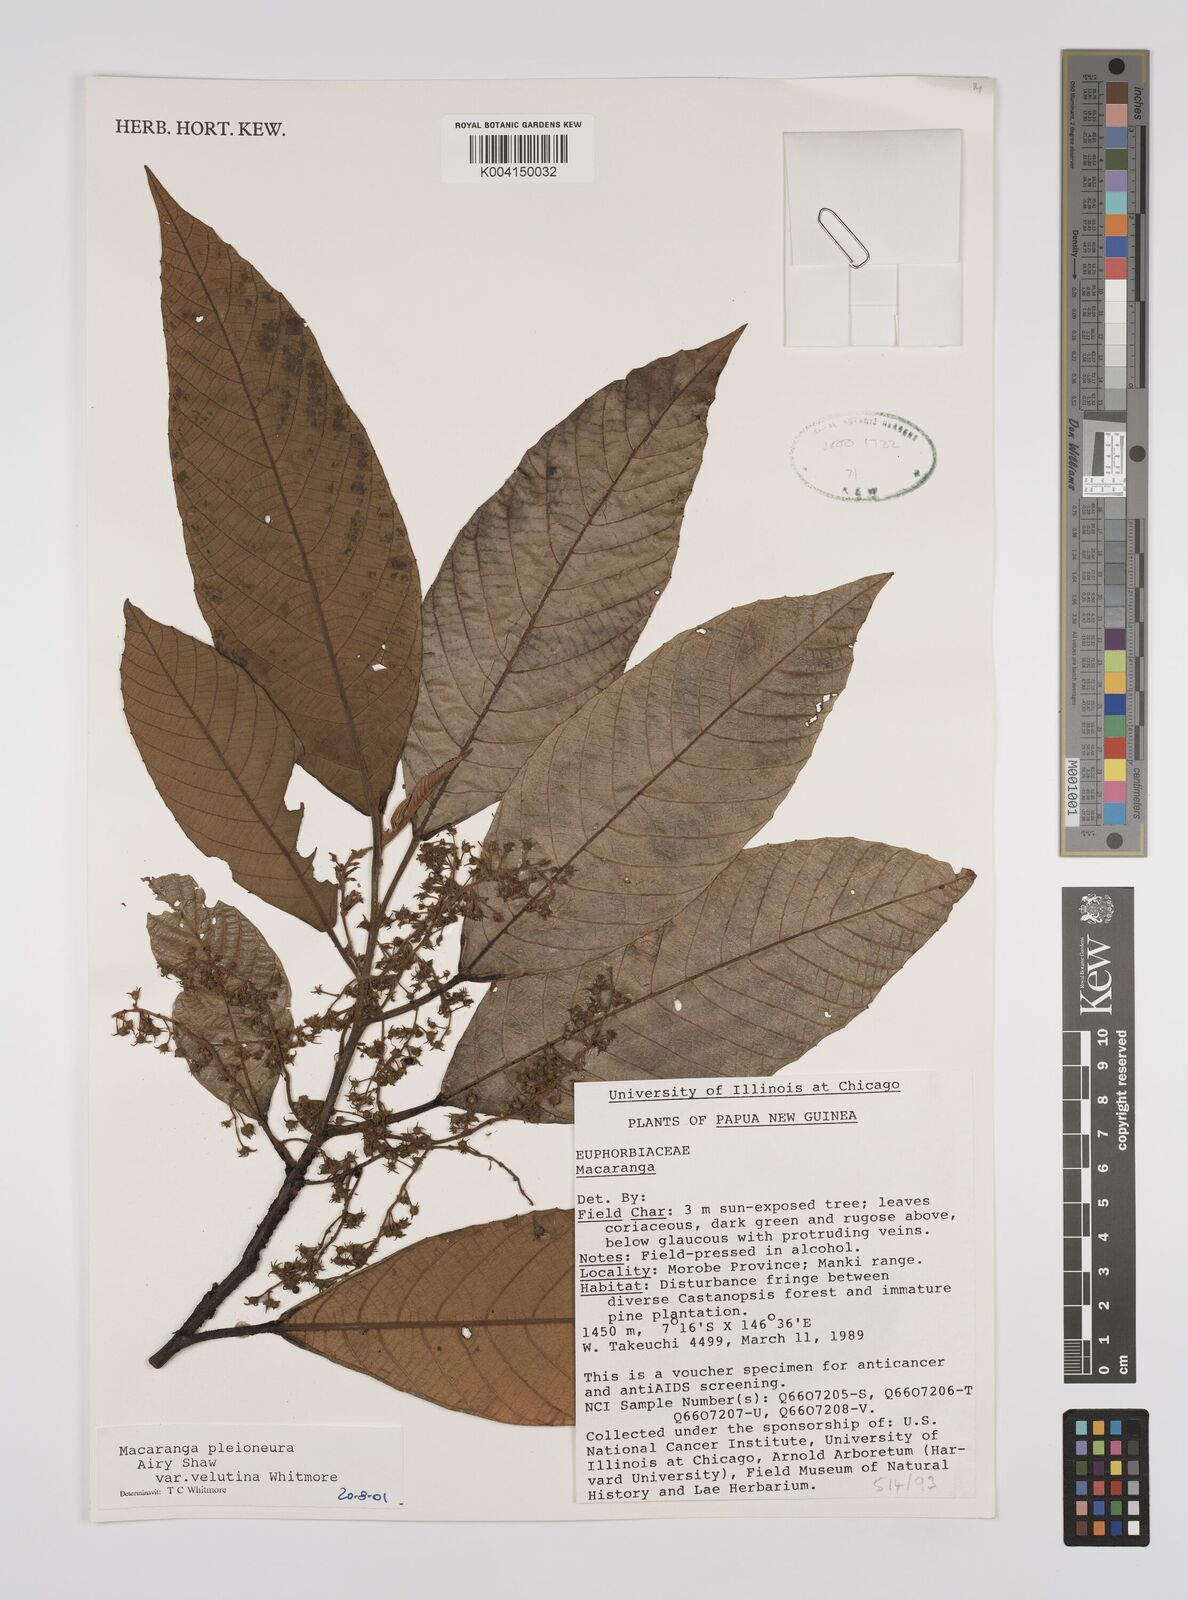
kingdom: Plantae
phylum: Tracheophyta
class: Magnoliopsida
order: Malpighiales
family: Euphorbiaceae
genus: Macaranga
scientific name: Macaranga pleioneura
